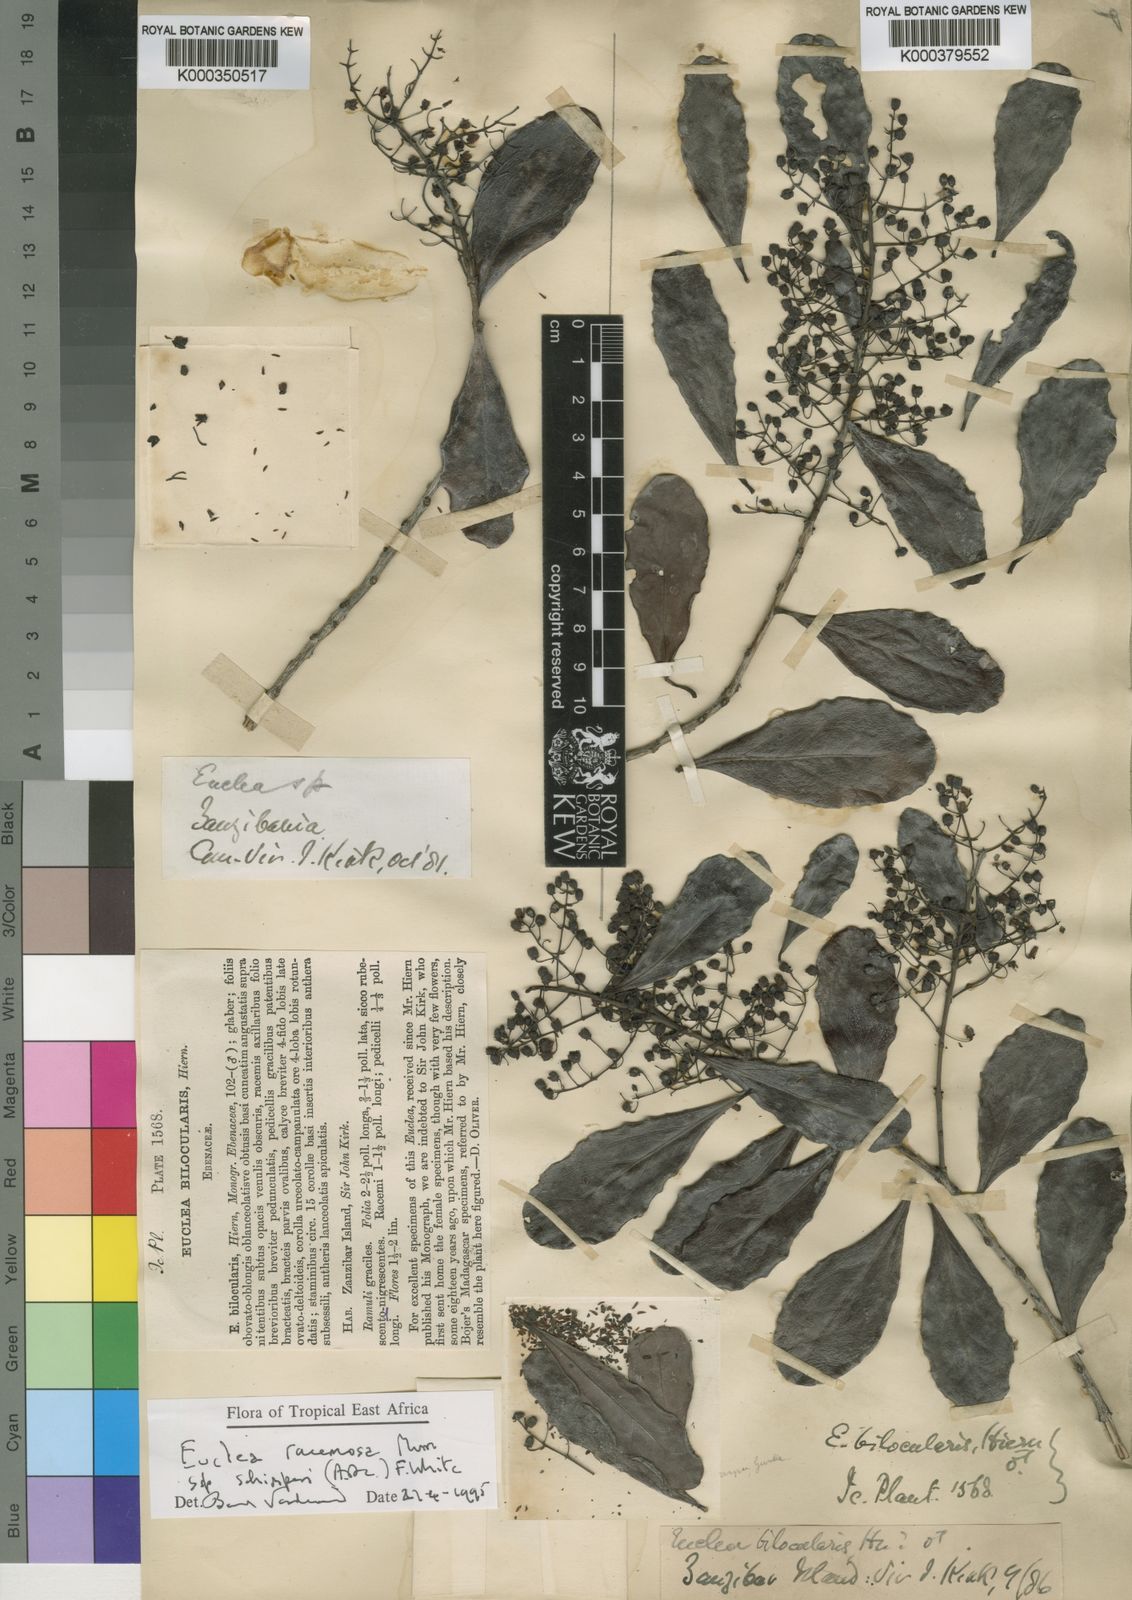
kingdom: Plantae
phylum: Tracheophyta
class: Magnoliopsida
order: Ericales
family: Ebenaceae
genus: Euclea
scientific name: Euclea racemosa
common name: Dune guarri
